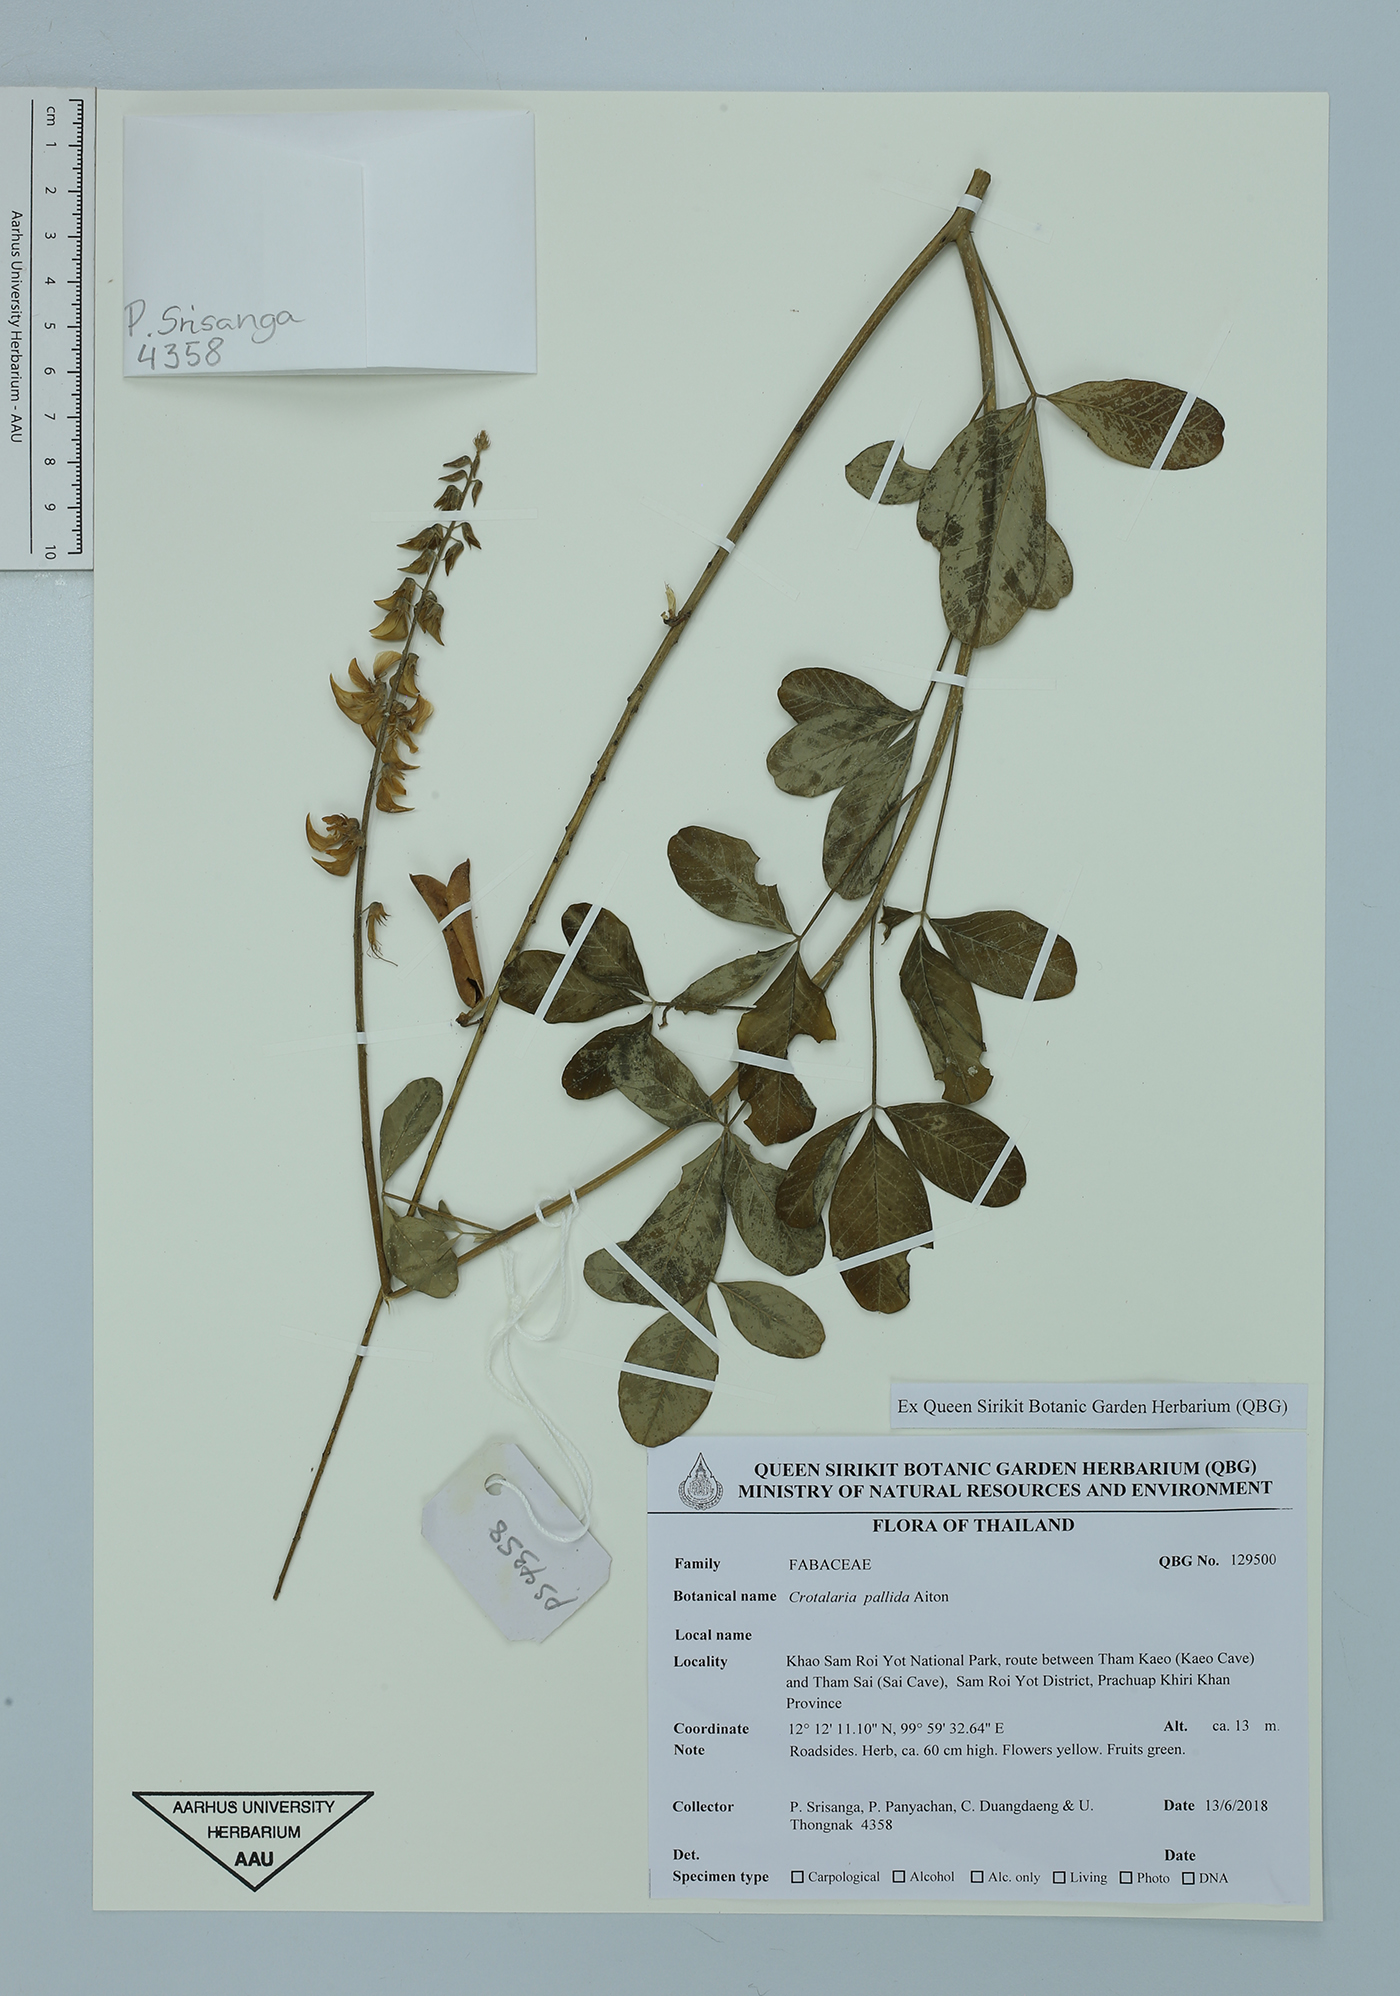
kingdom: Plantae
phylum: Tracheophyta
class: Magnoliopsida
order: Fabales
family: Fabaceae
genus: Crotalaria
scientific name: Crotalaria pallida
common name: Smooth rattlebox
